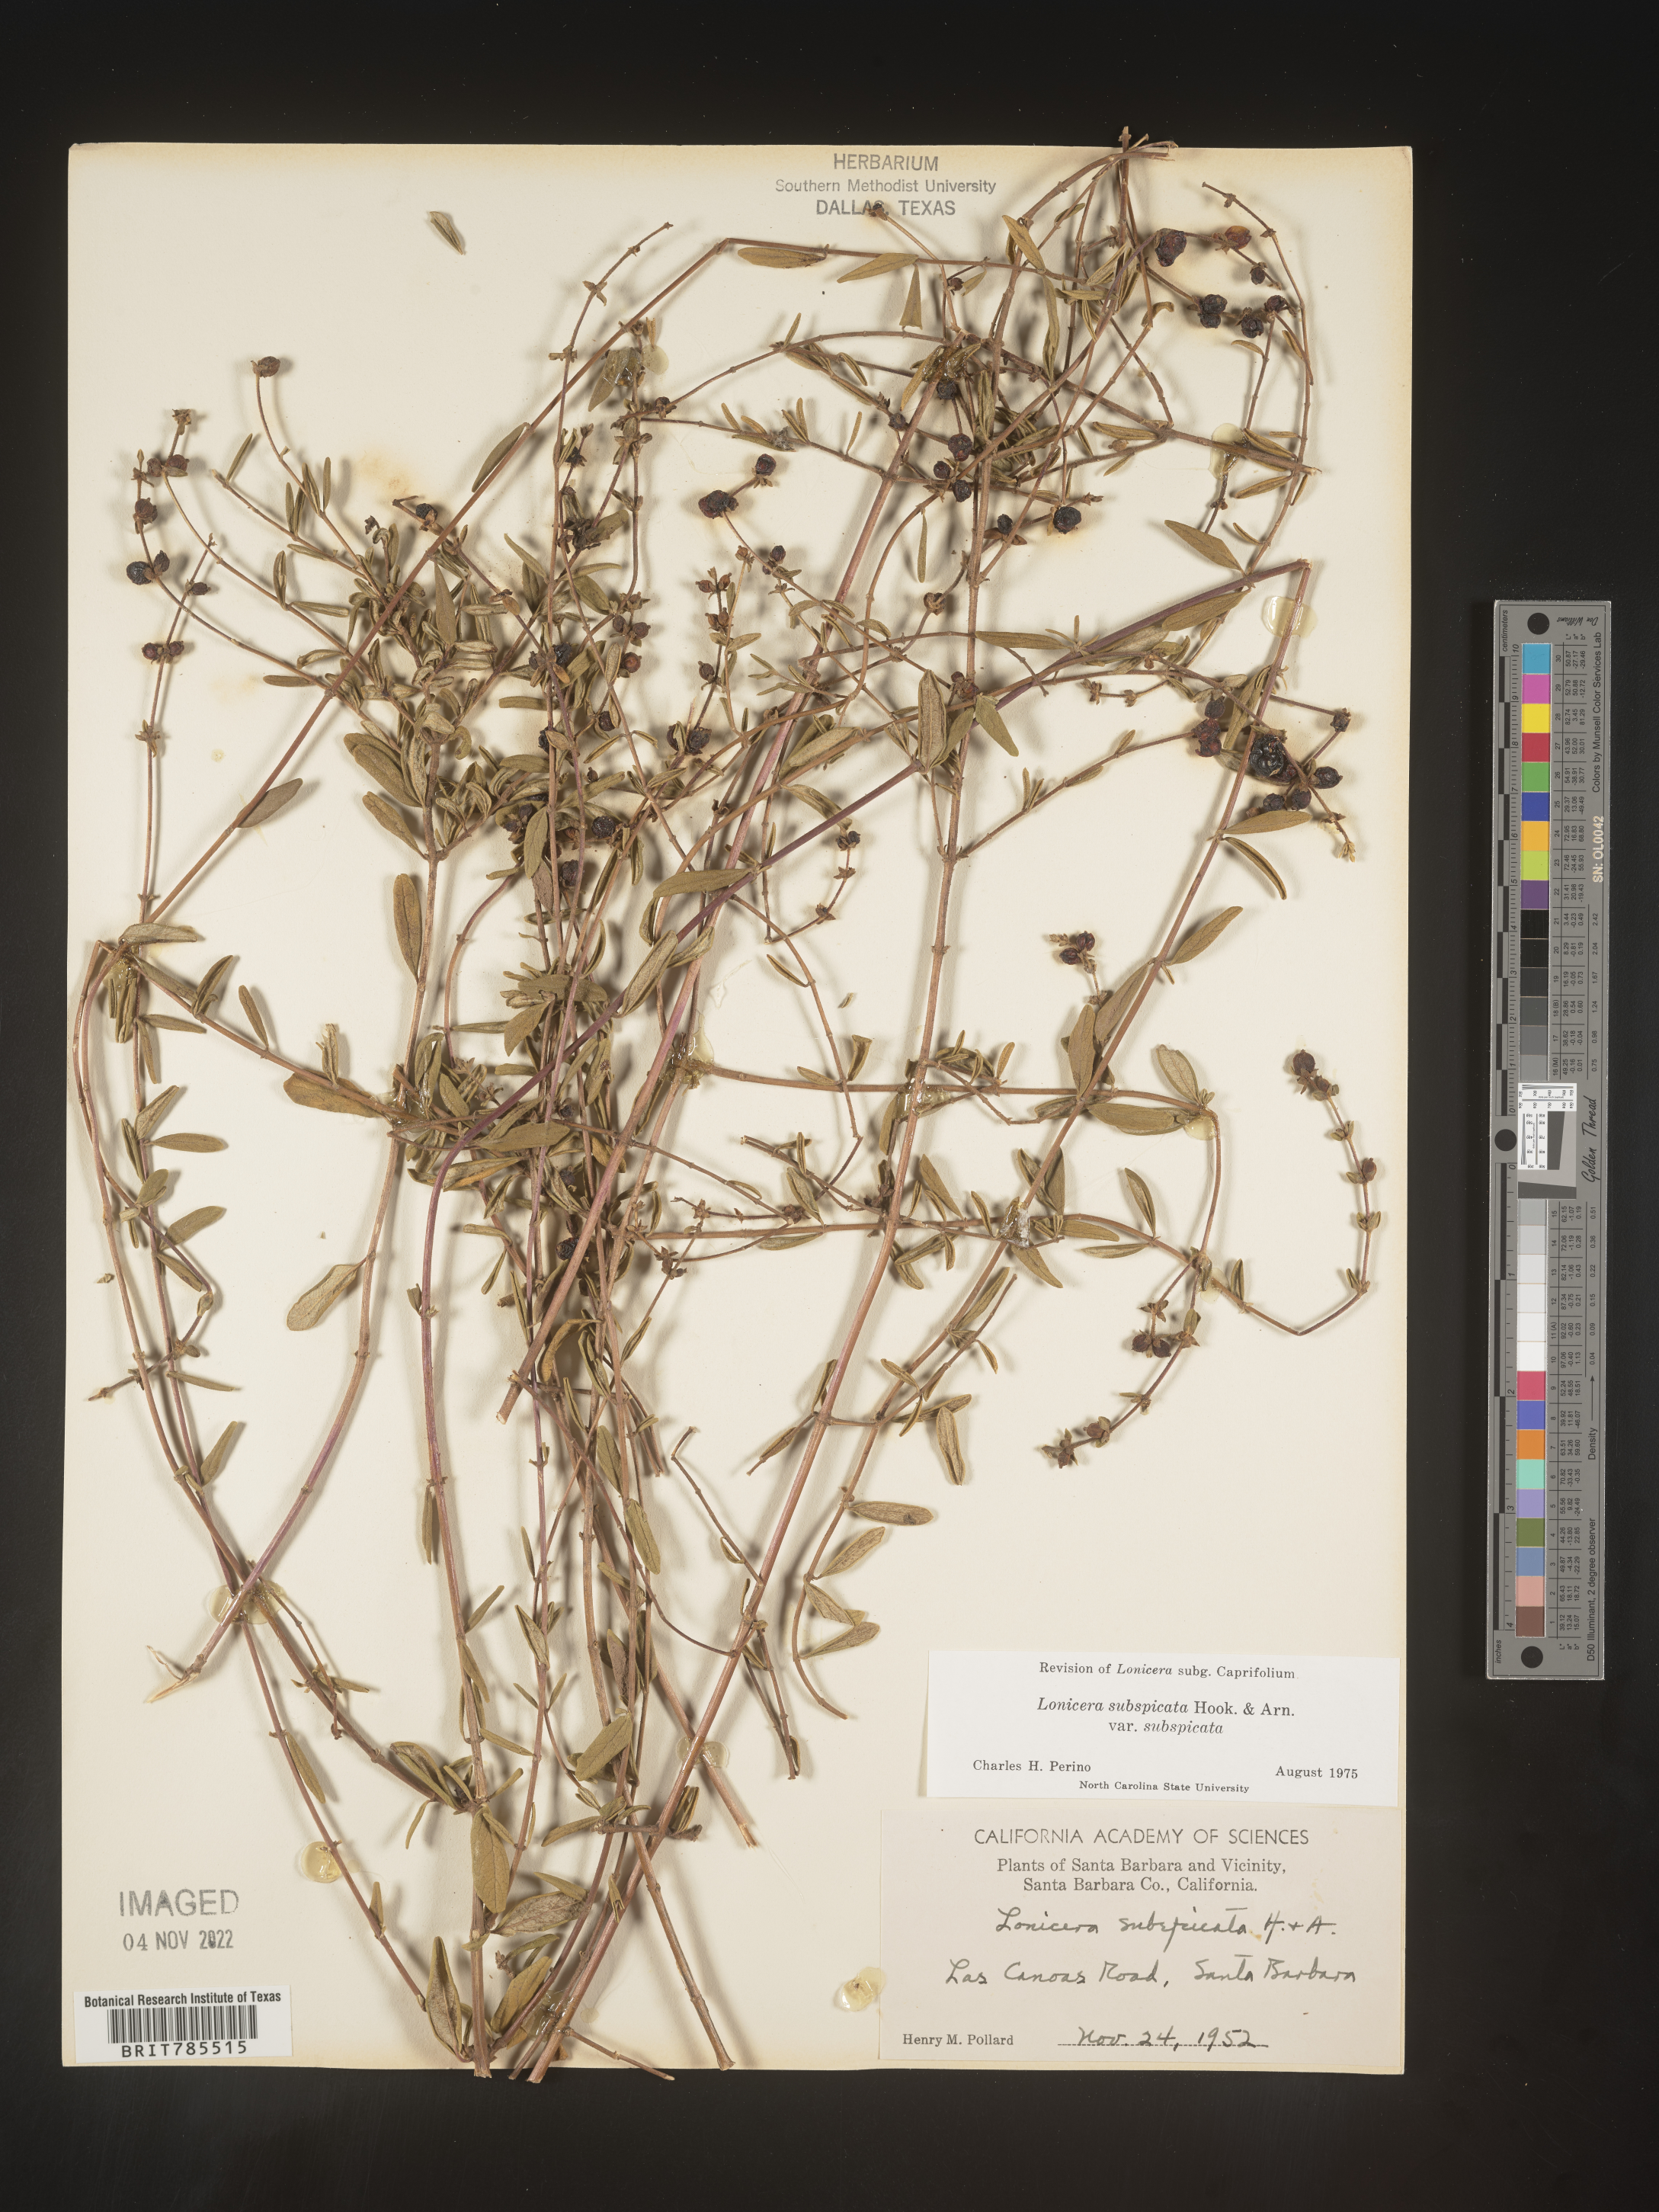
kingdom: Plantae
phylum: Tracheophyta
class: Magnoliopsida
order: Dipsacales
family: Caprifoliaceae
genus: Lonicera
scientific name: Lonicera
